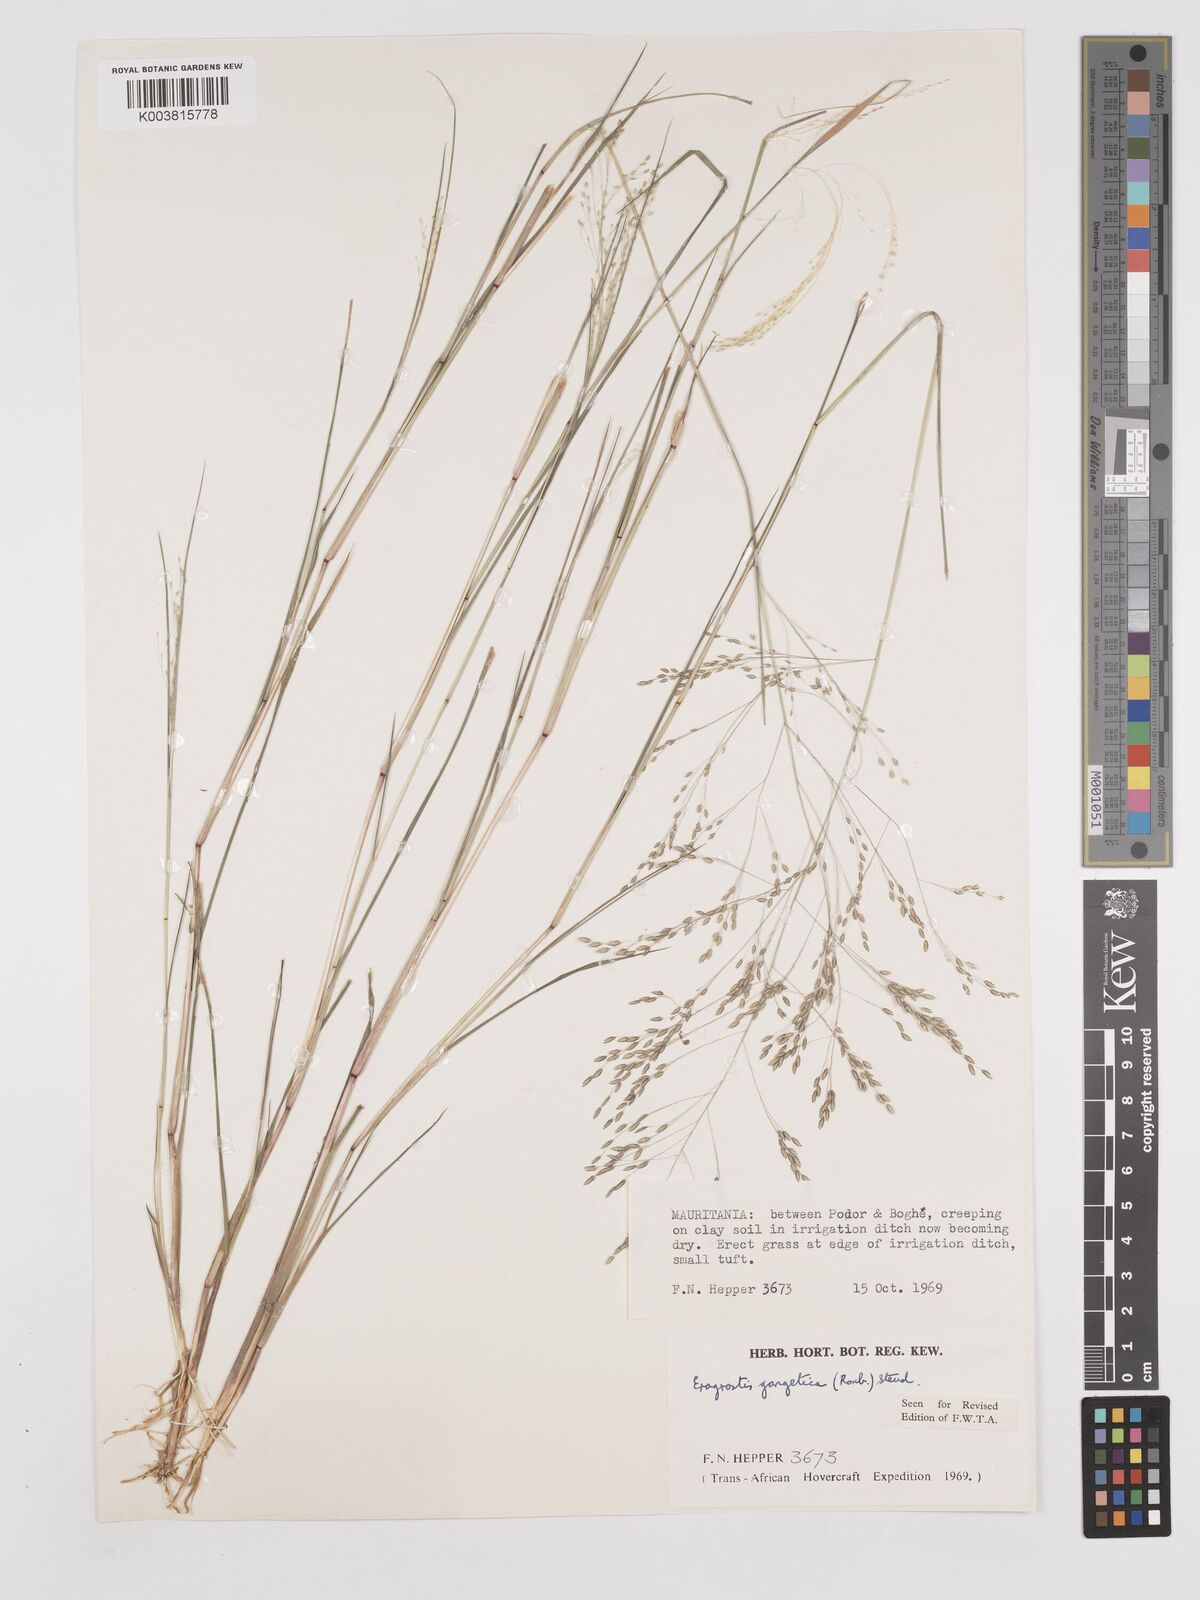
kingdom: Plantae
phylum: Tracheophyta
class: Liliopsida
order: Poales
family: Poaceae
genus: Eragrostis
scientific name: Eragrostis gangetica
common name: Slimflower lovegrass
